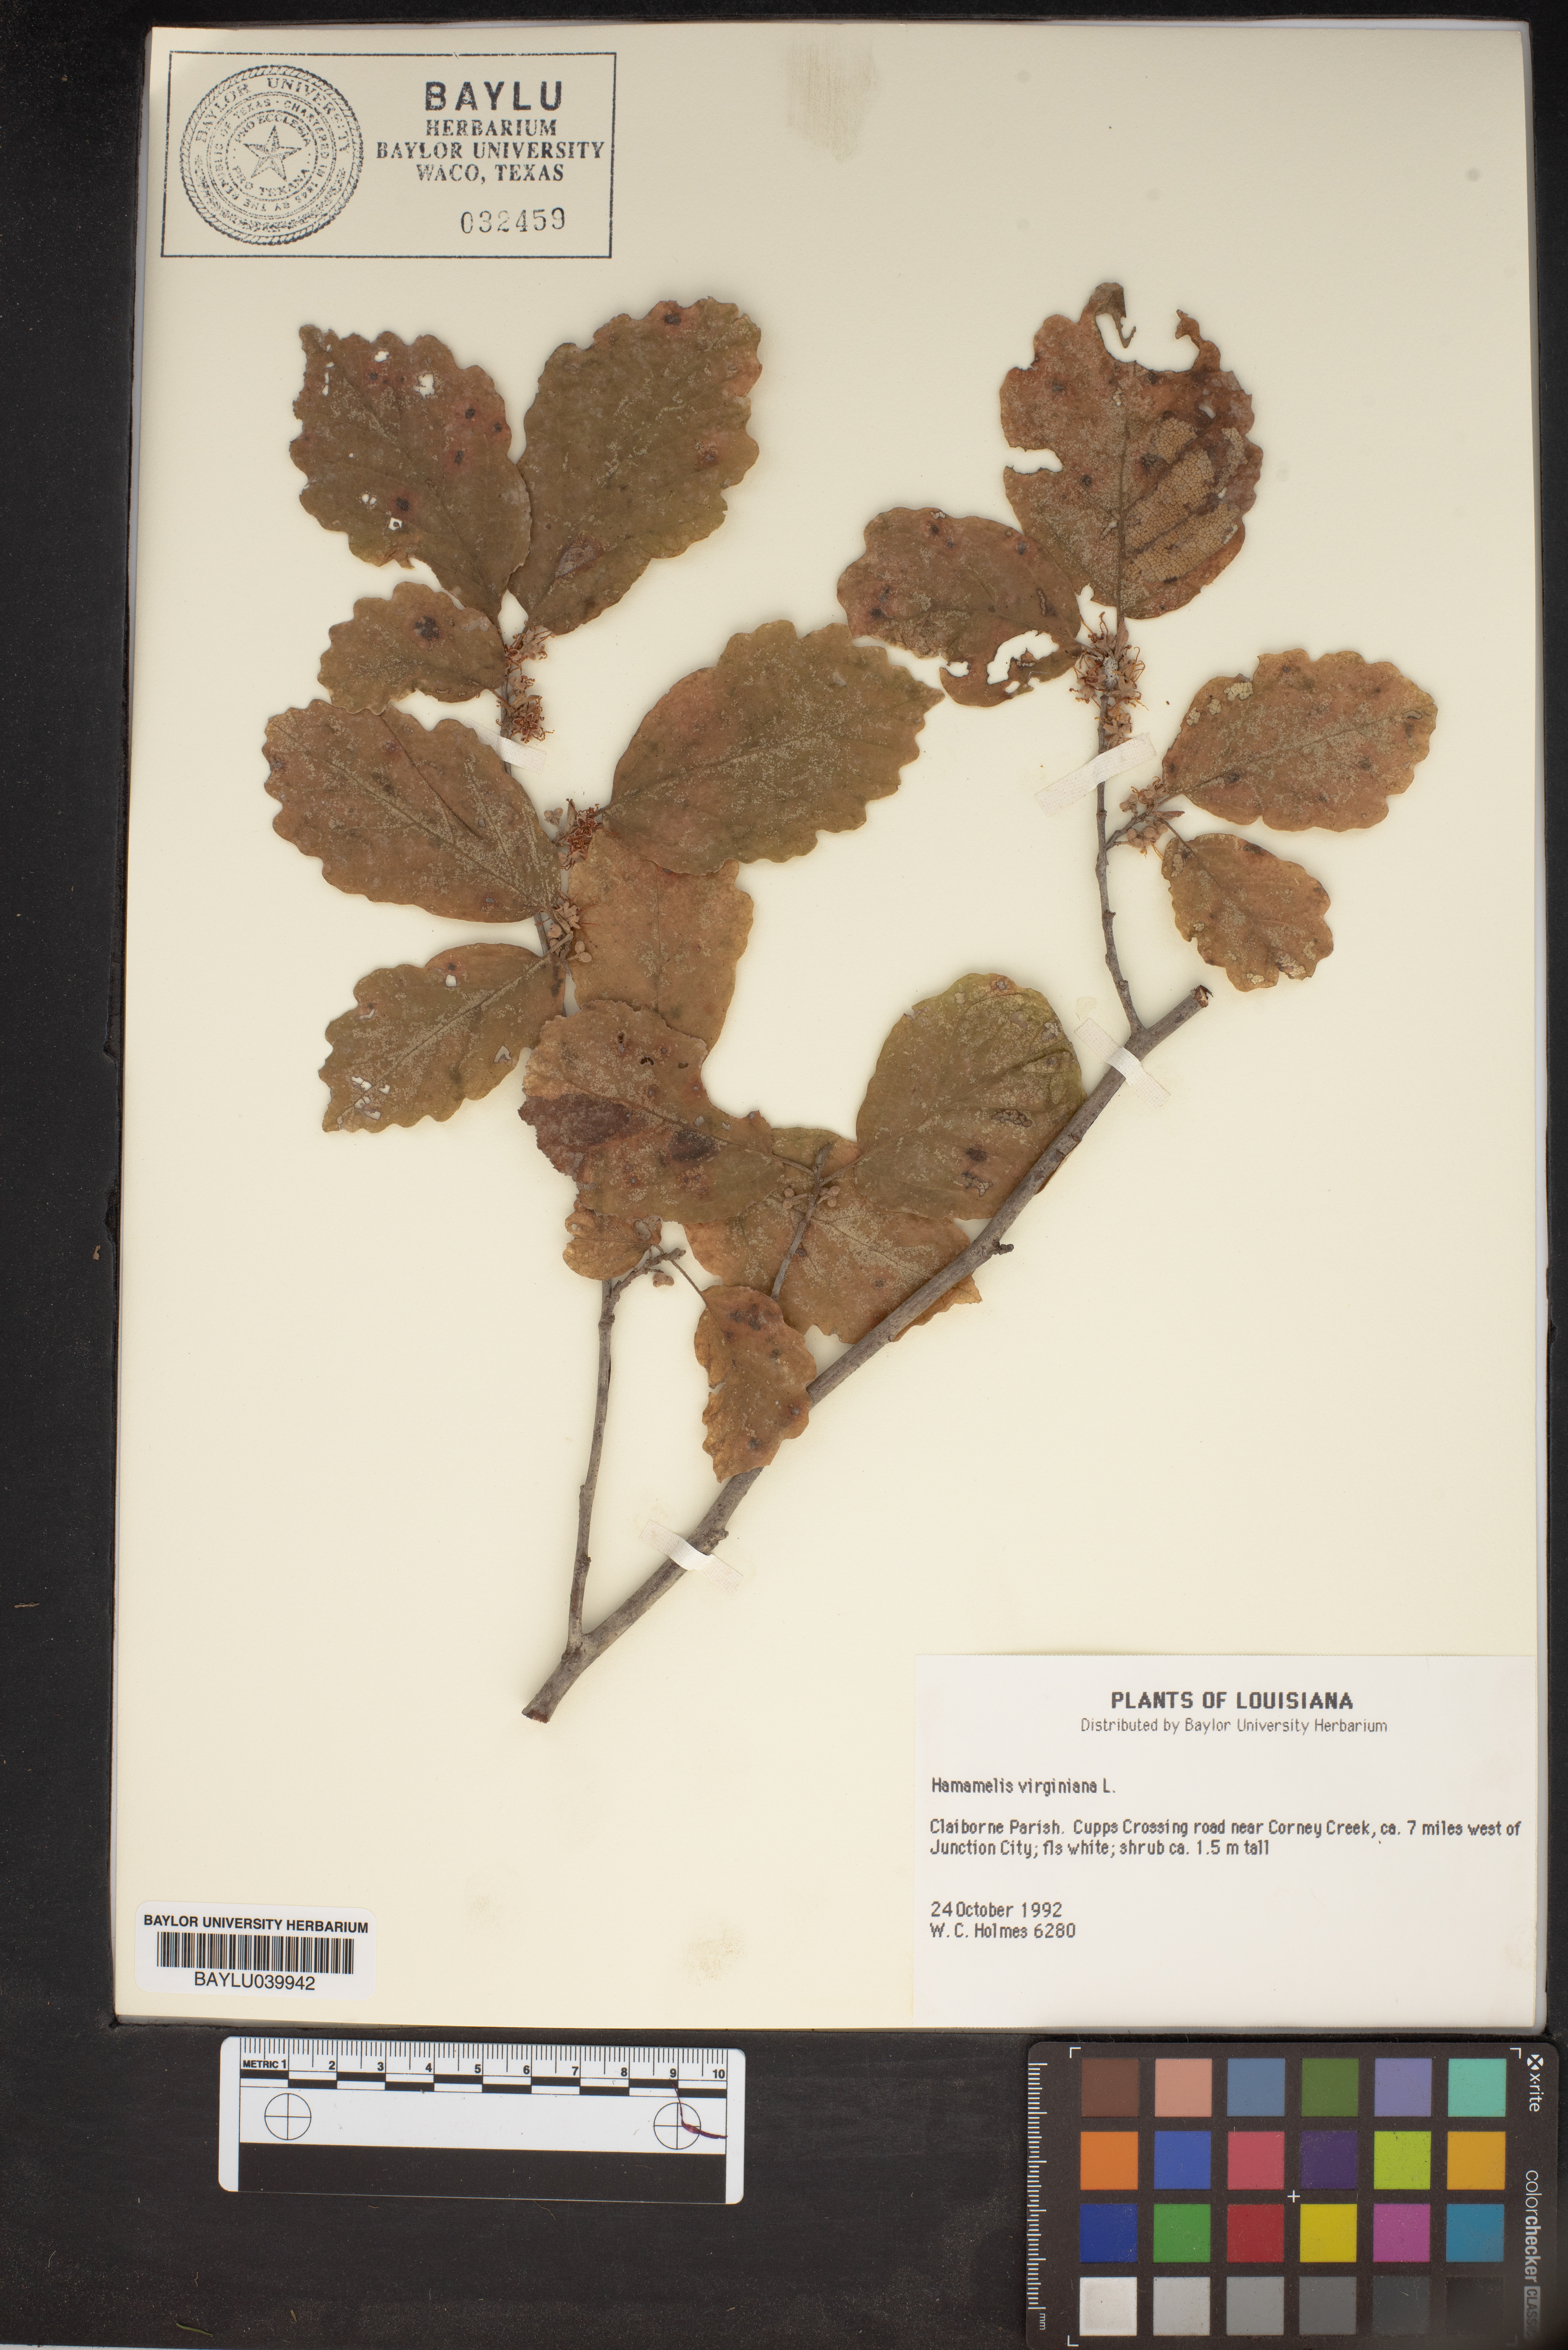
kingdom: Plantae
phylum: Tracheophyta
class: Magnoliopsida
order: Saxifragales
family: Hamamelidaceae
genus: Hamamelis
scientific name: Hamamelis virginiana
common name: Witch-hazel
